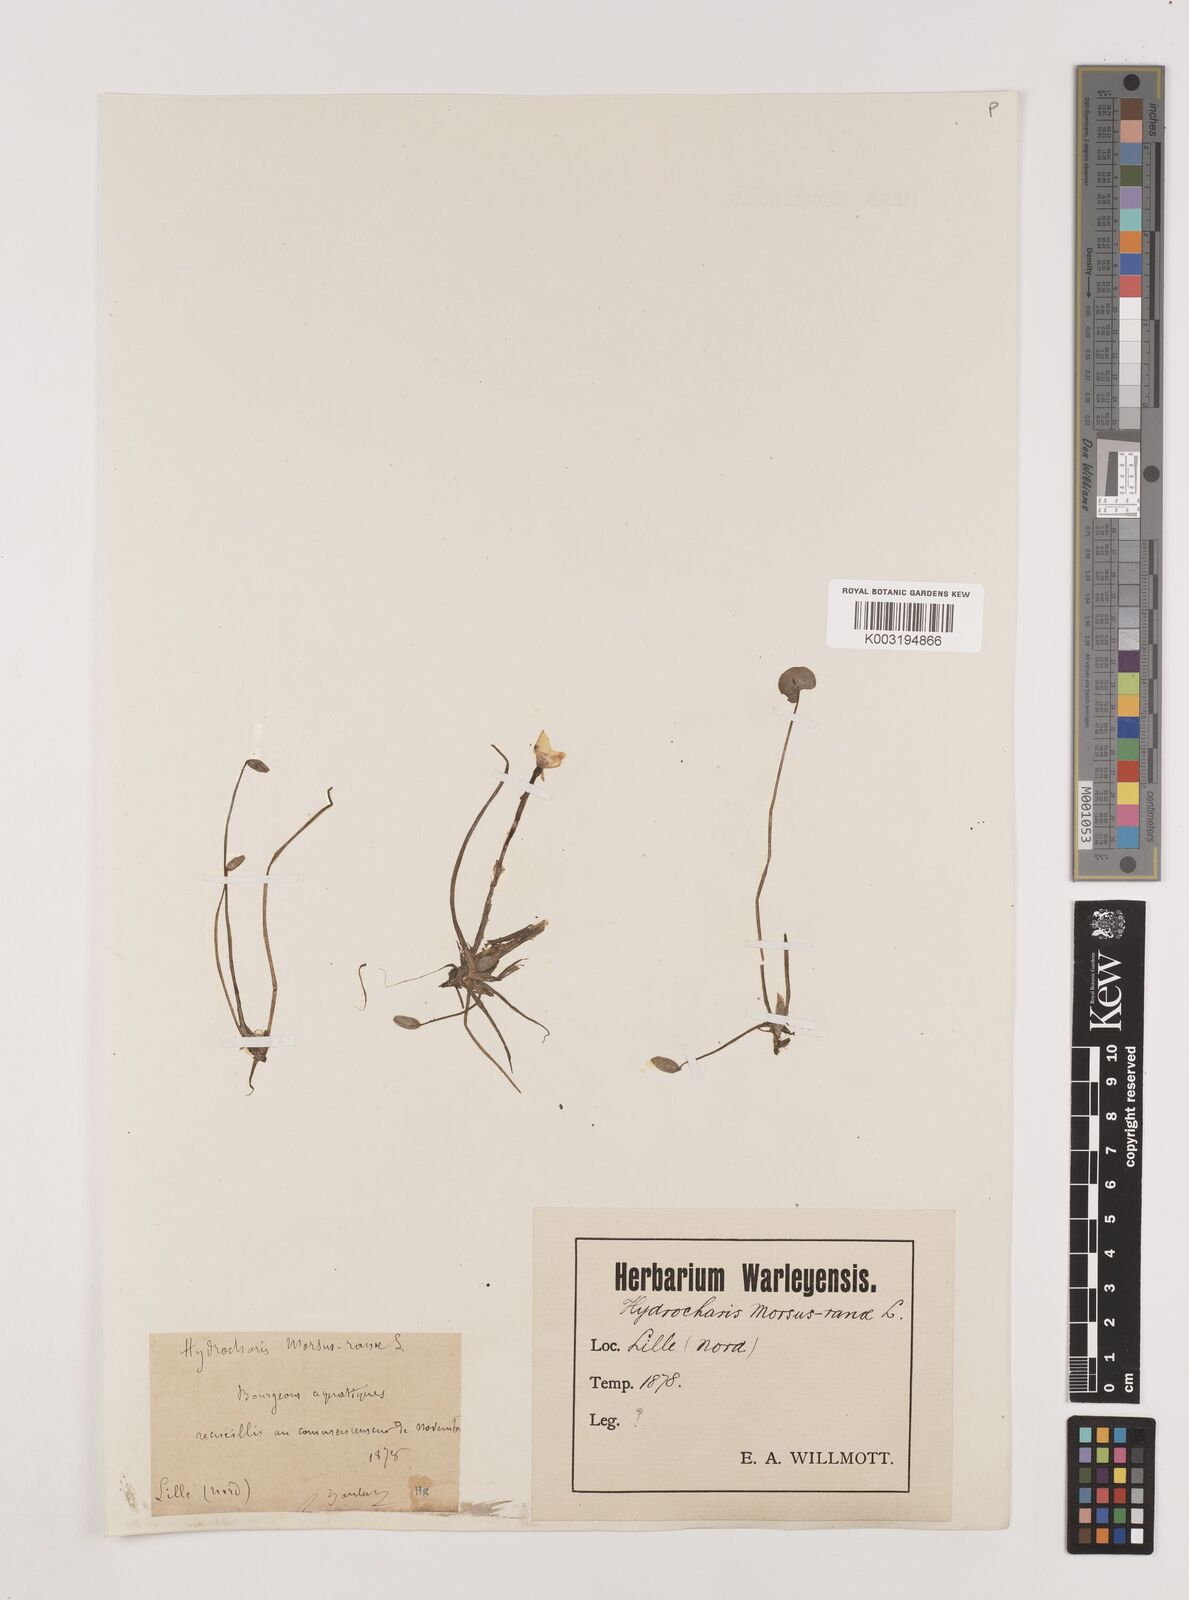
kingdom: Plantae
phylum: Tracheophyta
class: Liliopsida
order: Alismatales
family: Hydrocharitaceae
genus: Hydrocharis
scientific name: Hydrocharis morsus-ranae
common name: Frogbit
